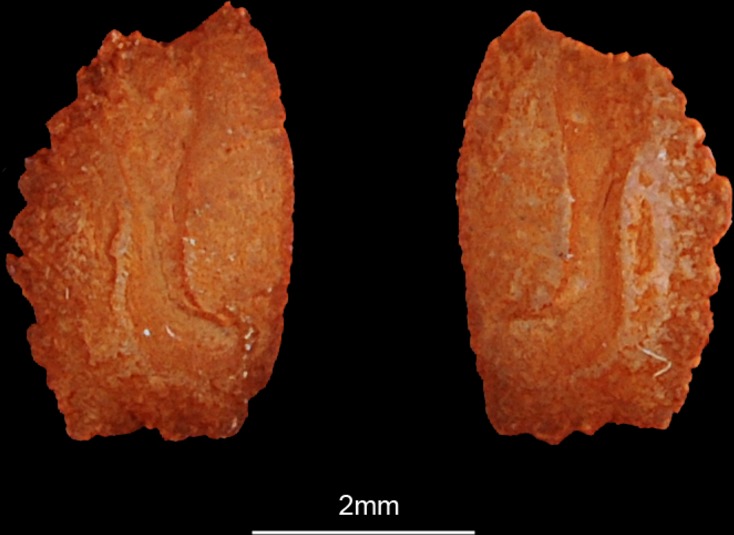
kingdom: Animalia
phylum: Chordata
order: Perciformes
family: Acanthuridae
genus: Acanthurus
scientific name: Acanthurus sohal
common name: Red sea surgeonfish
